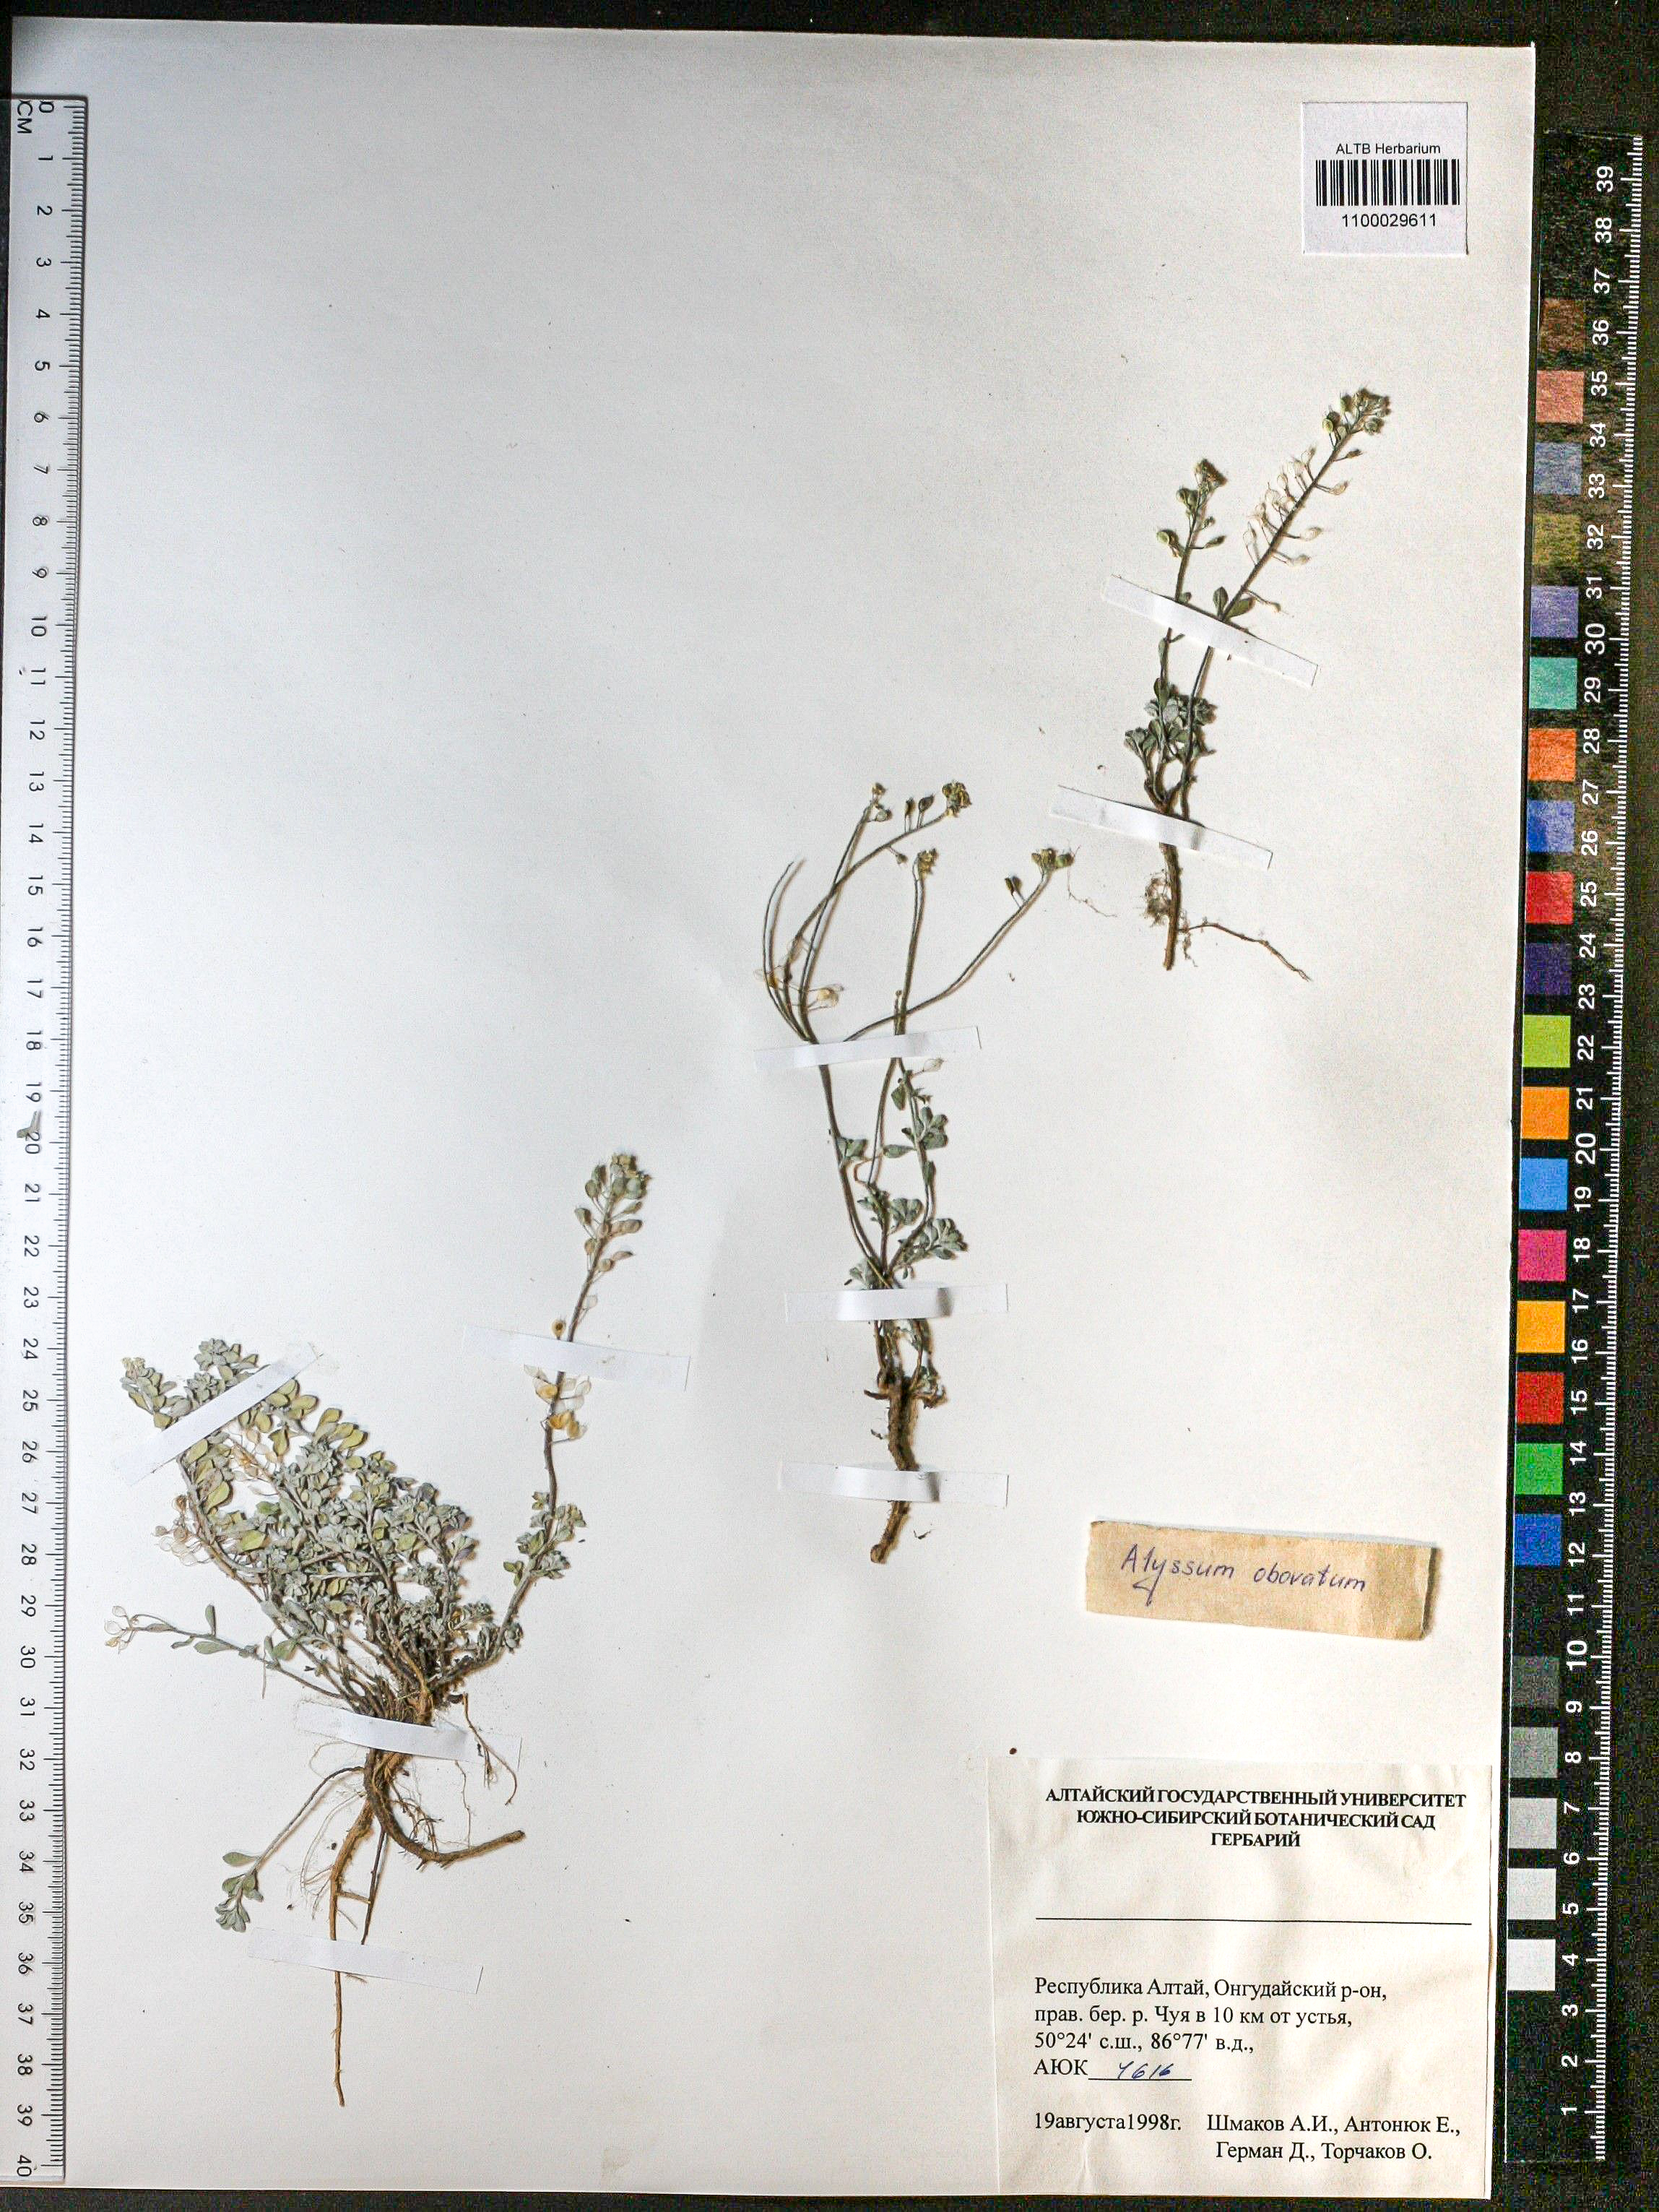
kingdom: Plantae
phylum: Tracheophyta
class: Magnoliopsida
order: Brassicales
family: Brassicaceae
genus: Odontarrhena
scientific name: Odontarrhena obovata
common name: American alyssum
